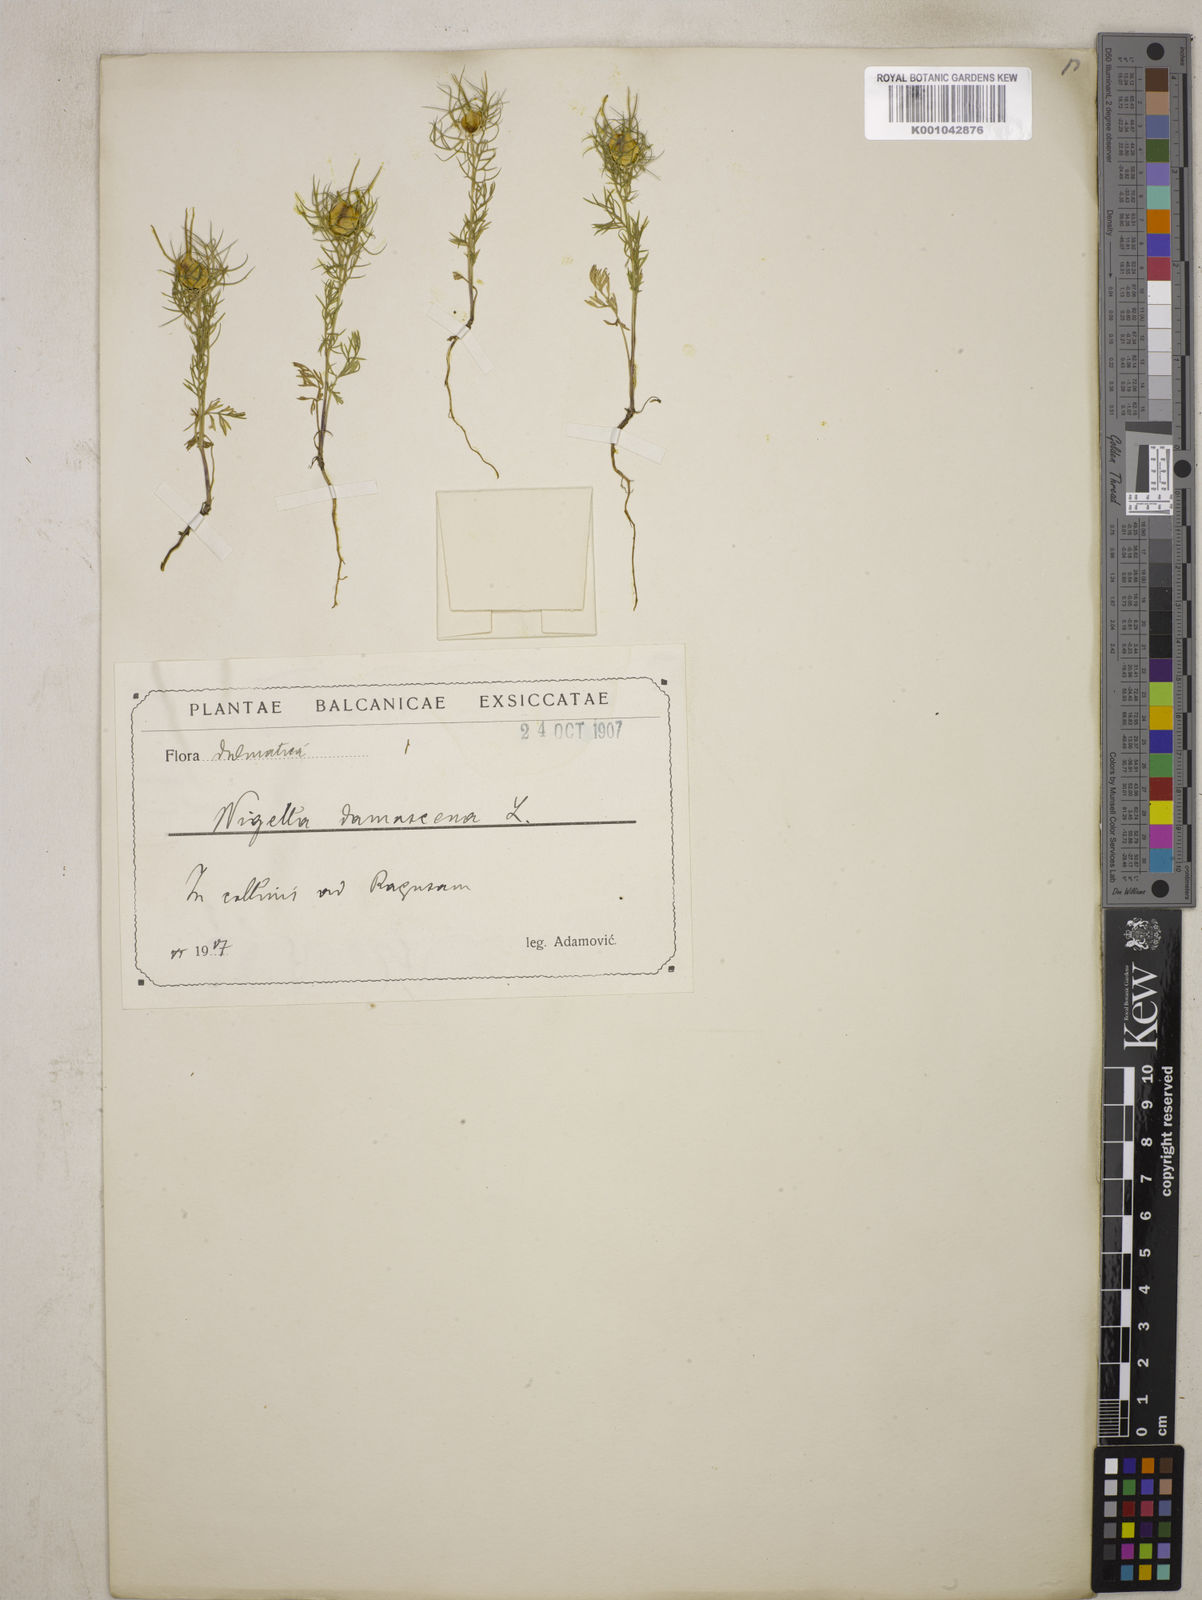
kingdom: Plantae
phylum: Tracheophyta
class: Magnoliopsida
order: Ranunculales
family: Ranunculaceae
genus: Nigella
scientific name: Nigella damascena
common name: Love-in-a-mist
